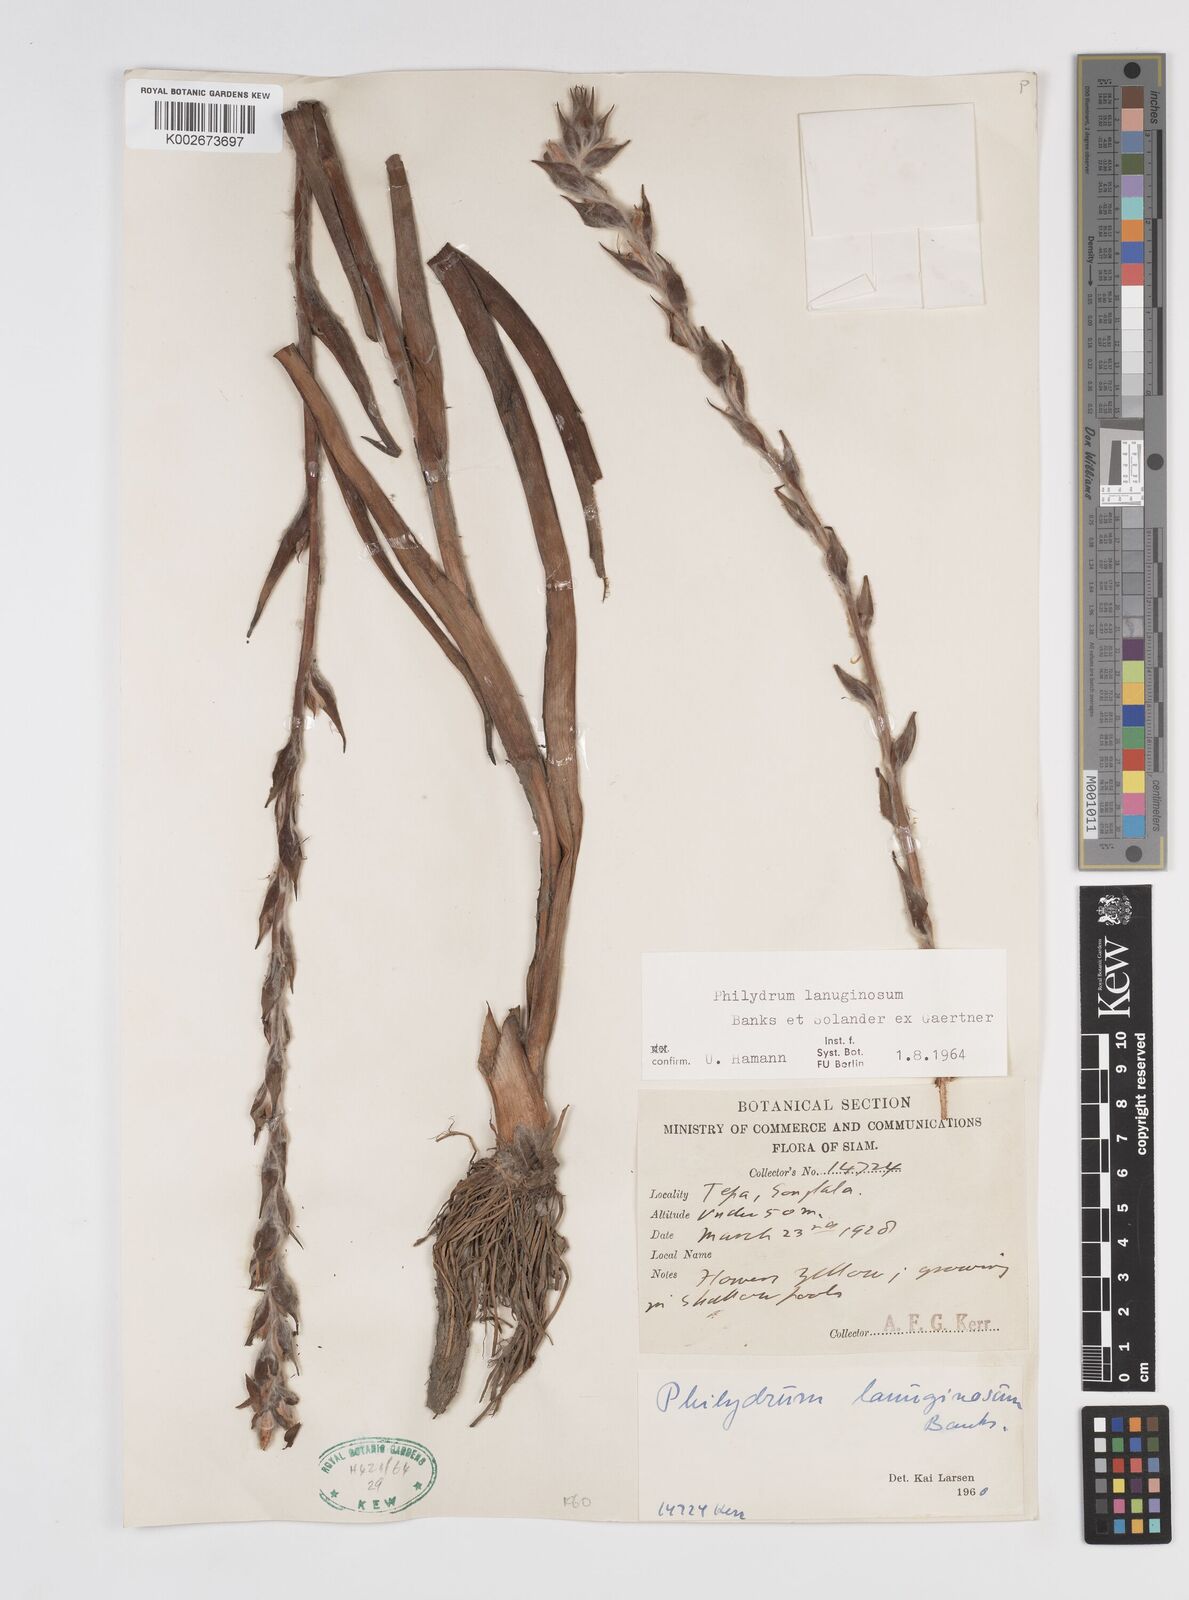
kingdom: Plantae
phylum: Tracheophyta
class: Liliopsida
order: Commelinales
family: Philydraceae
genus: Philydrum
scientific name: Philydrum lanuginosum
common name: Woolly frog's mouth
